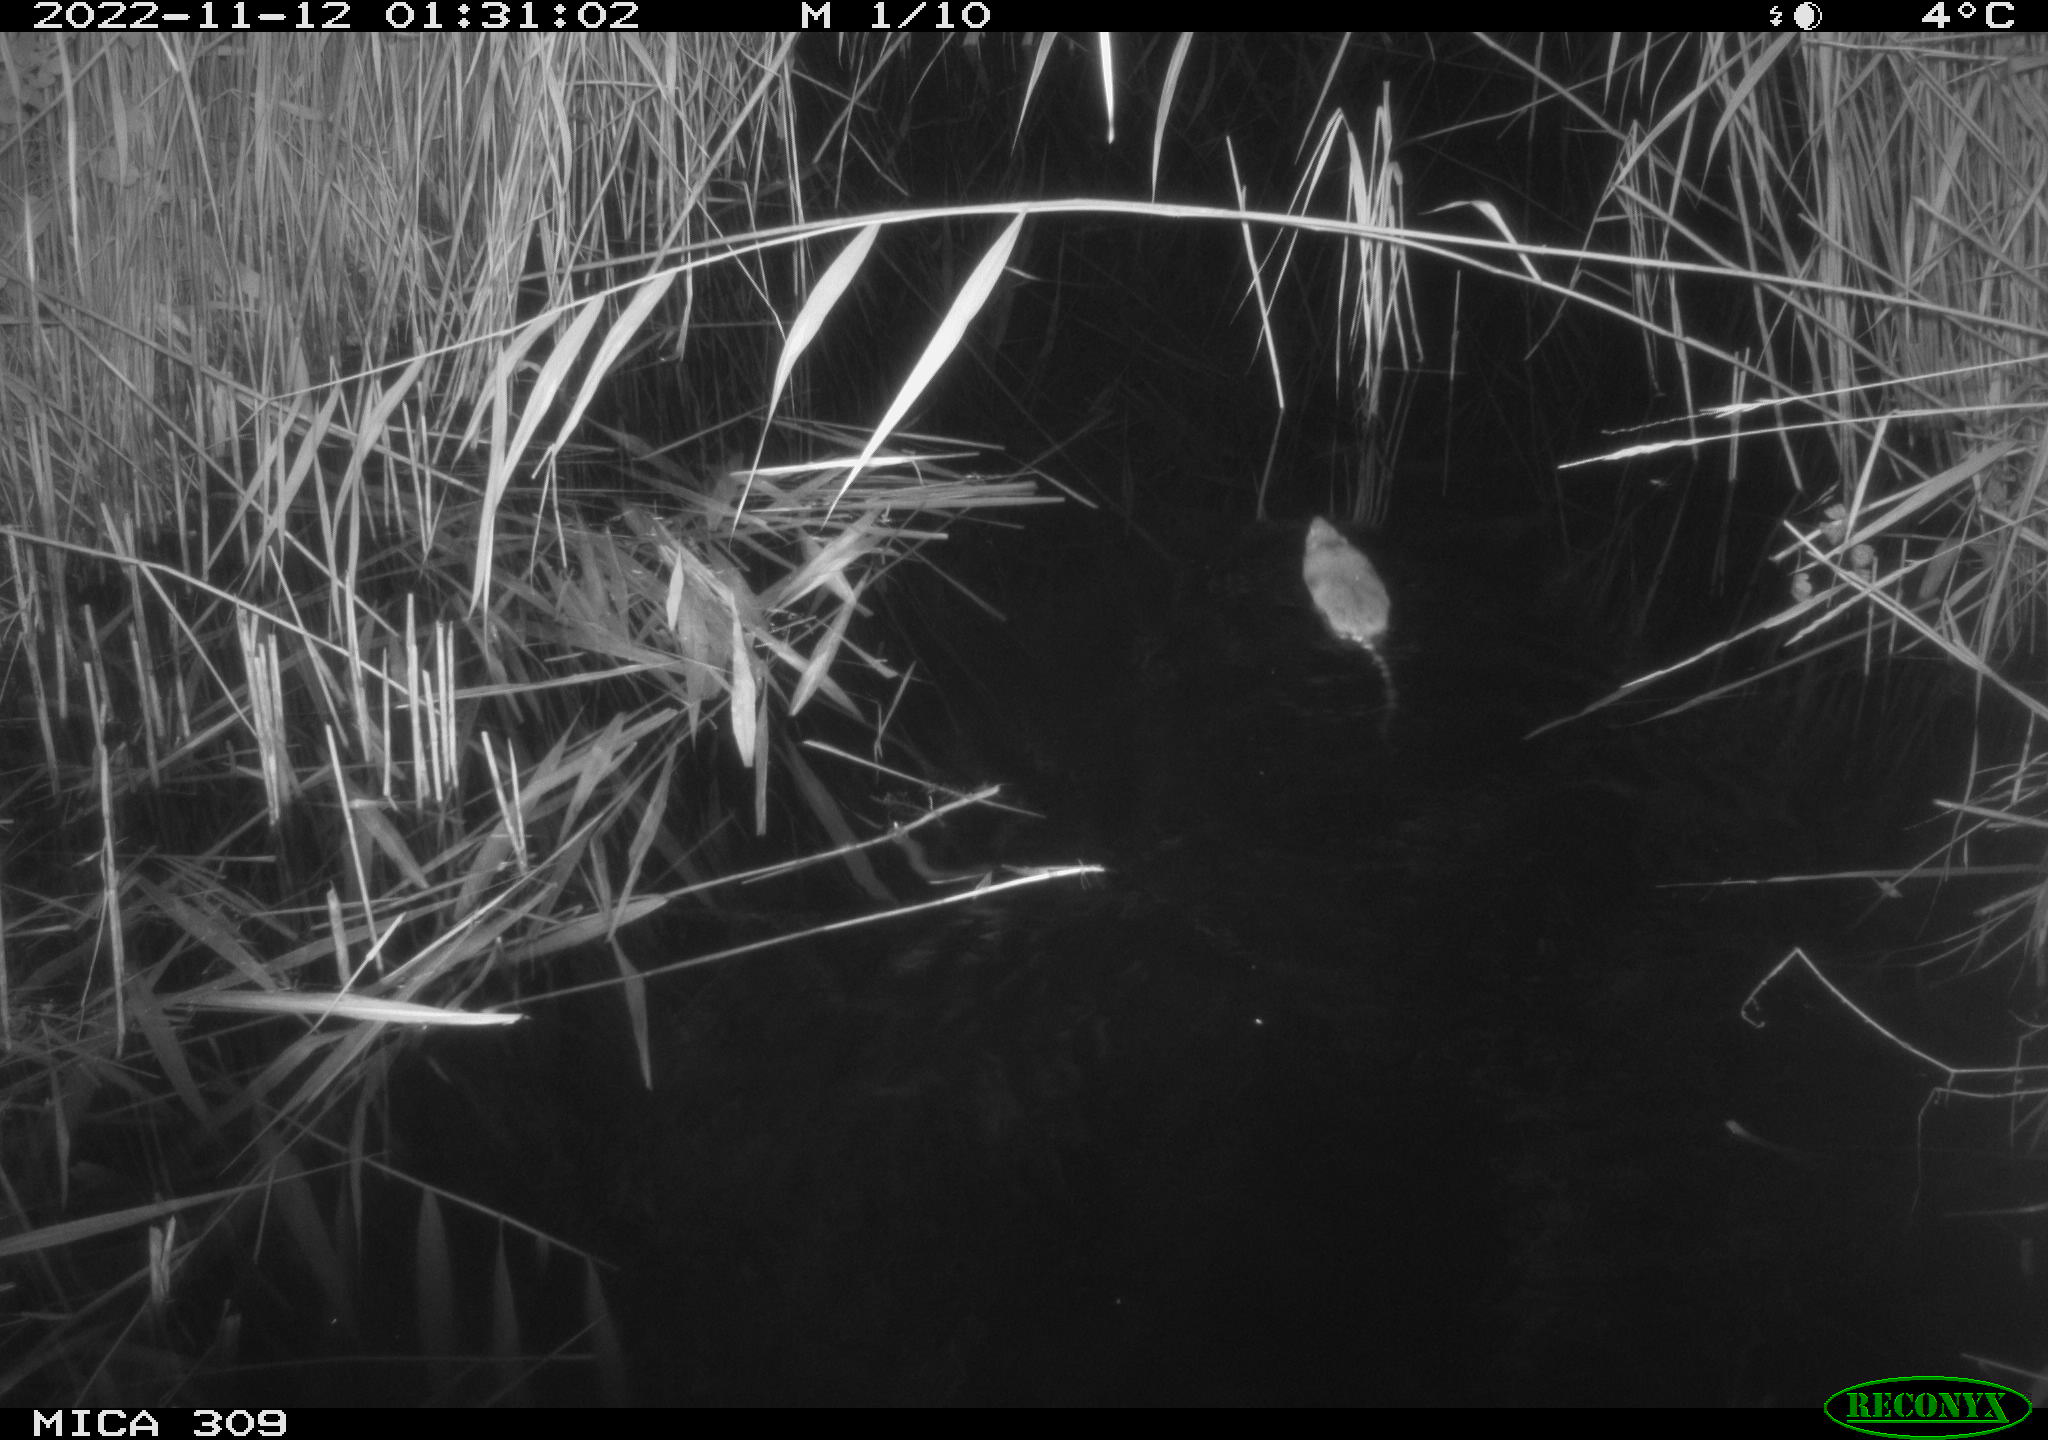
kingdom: Animalia
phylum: Chordata
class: Mammalia
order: Rodentia
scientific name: Rodentia
